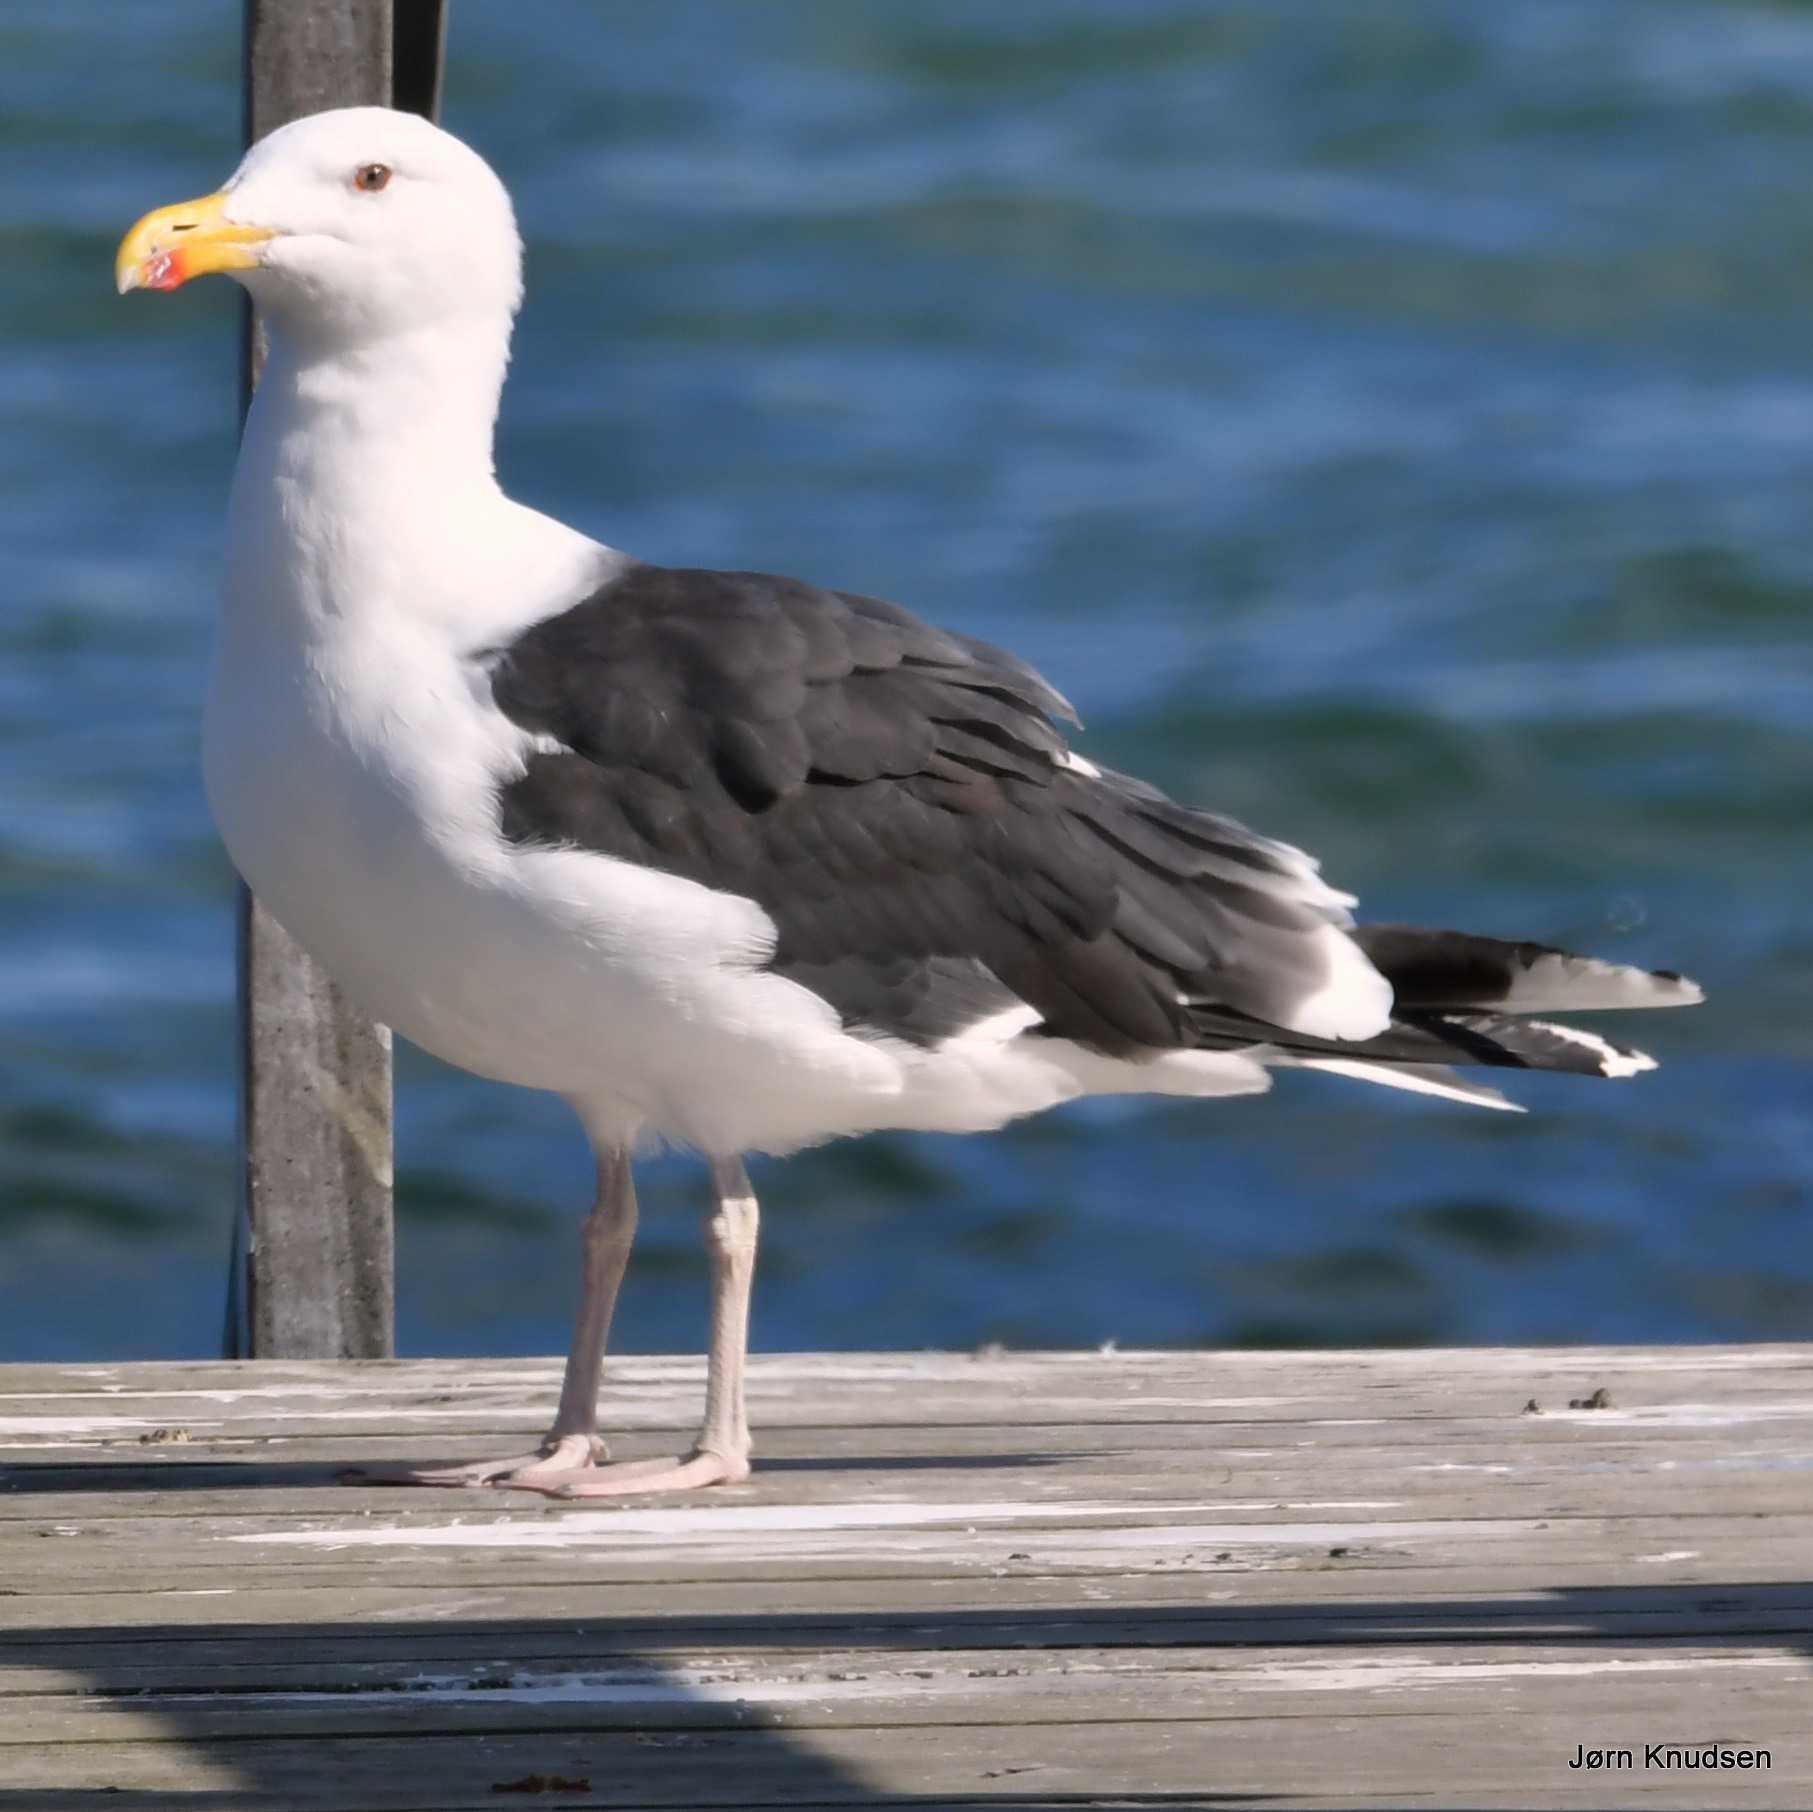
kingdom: Animalia
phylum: Chordata
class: Aves
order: Charadriiformes
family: Laridae
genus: Larus
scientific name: Larus marinus
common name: Svartbag
